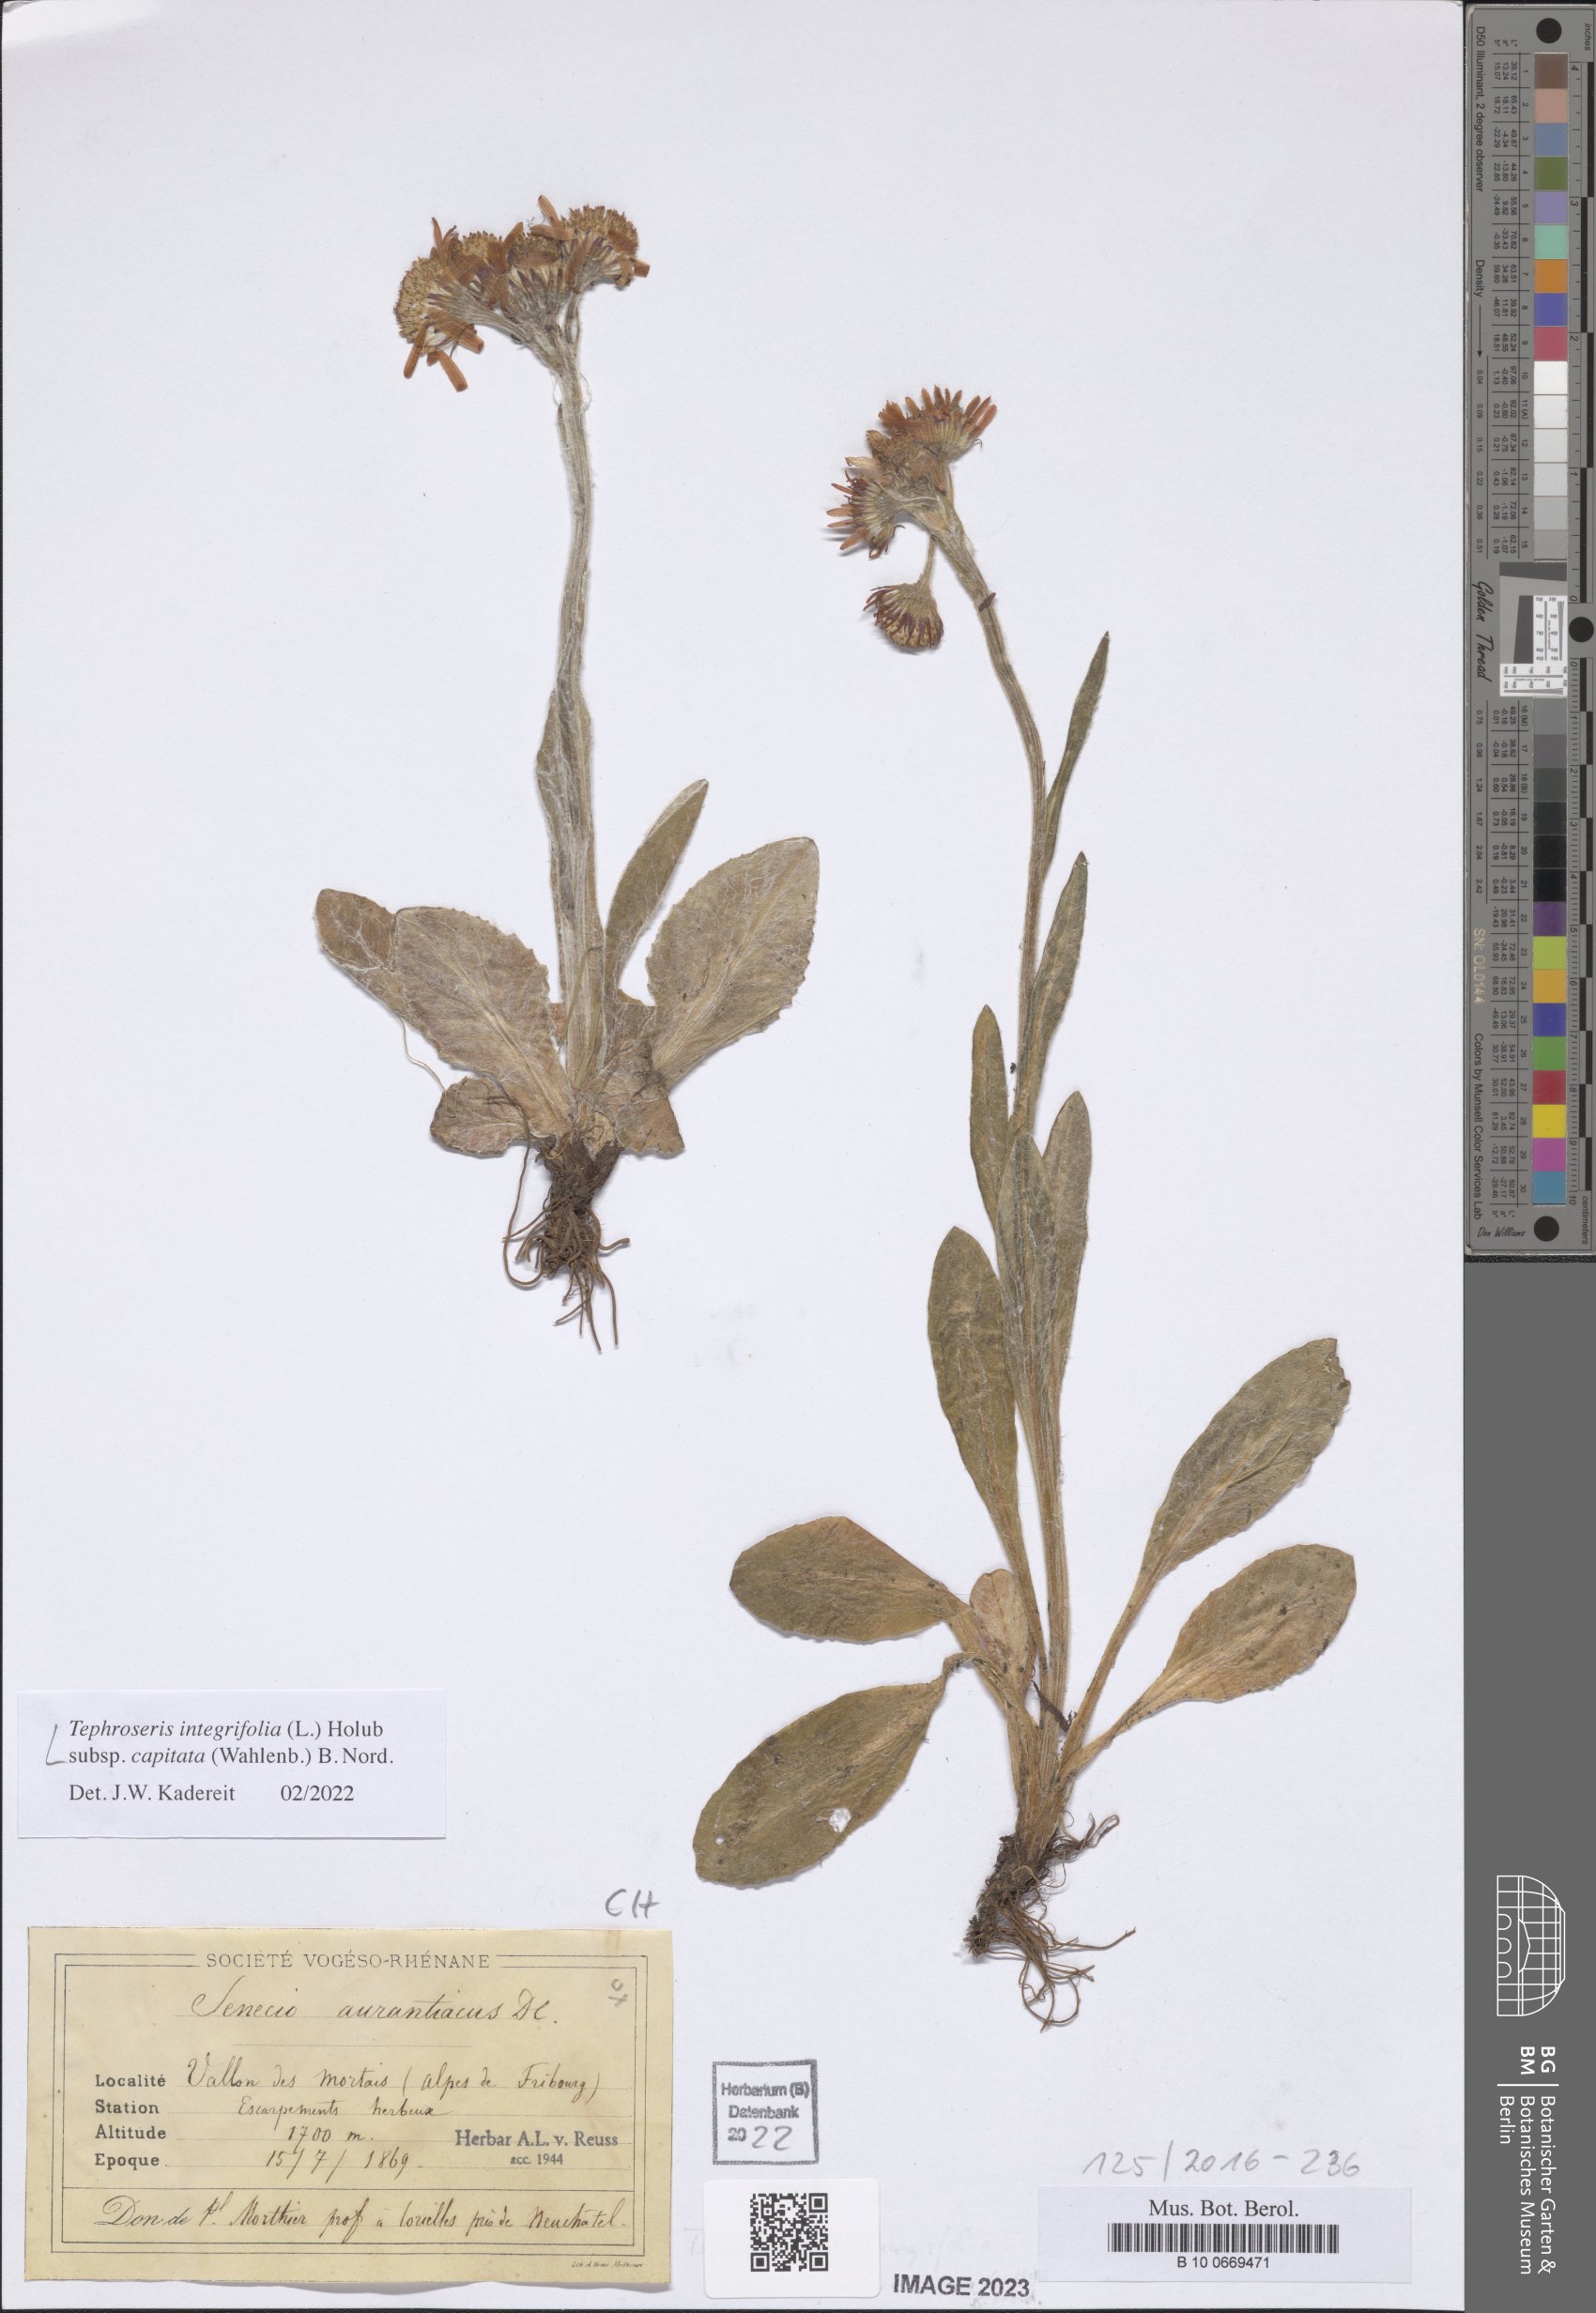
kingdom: Plantae
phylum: Tracheophyta
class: Magnoliopsida
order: Asterales
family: Asteraceae
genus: Tephroseris
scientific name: Tephroseris integrifolia
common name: Field fleawort
